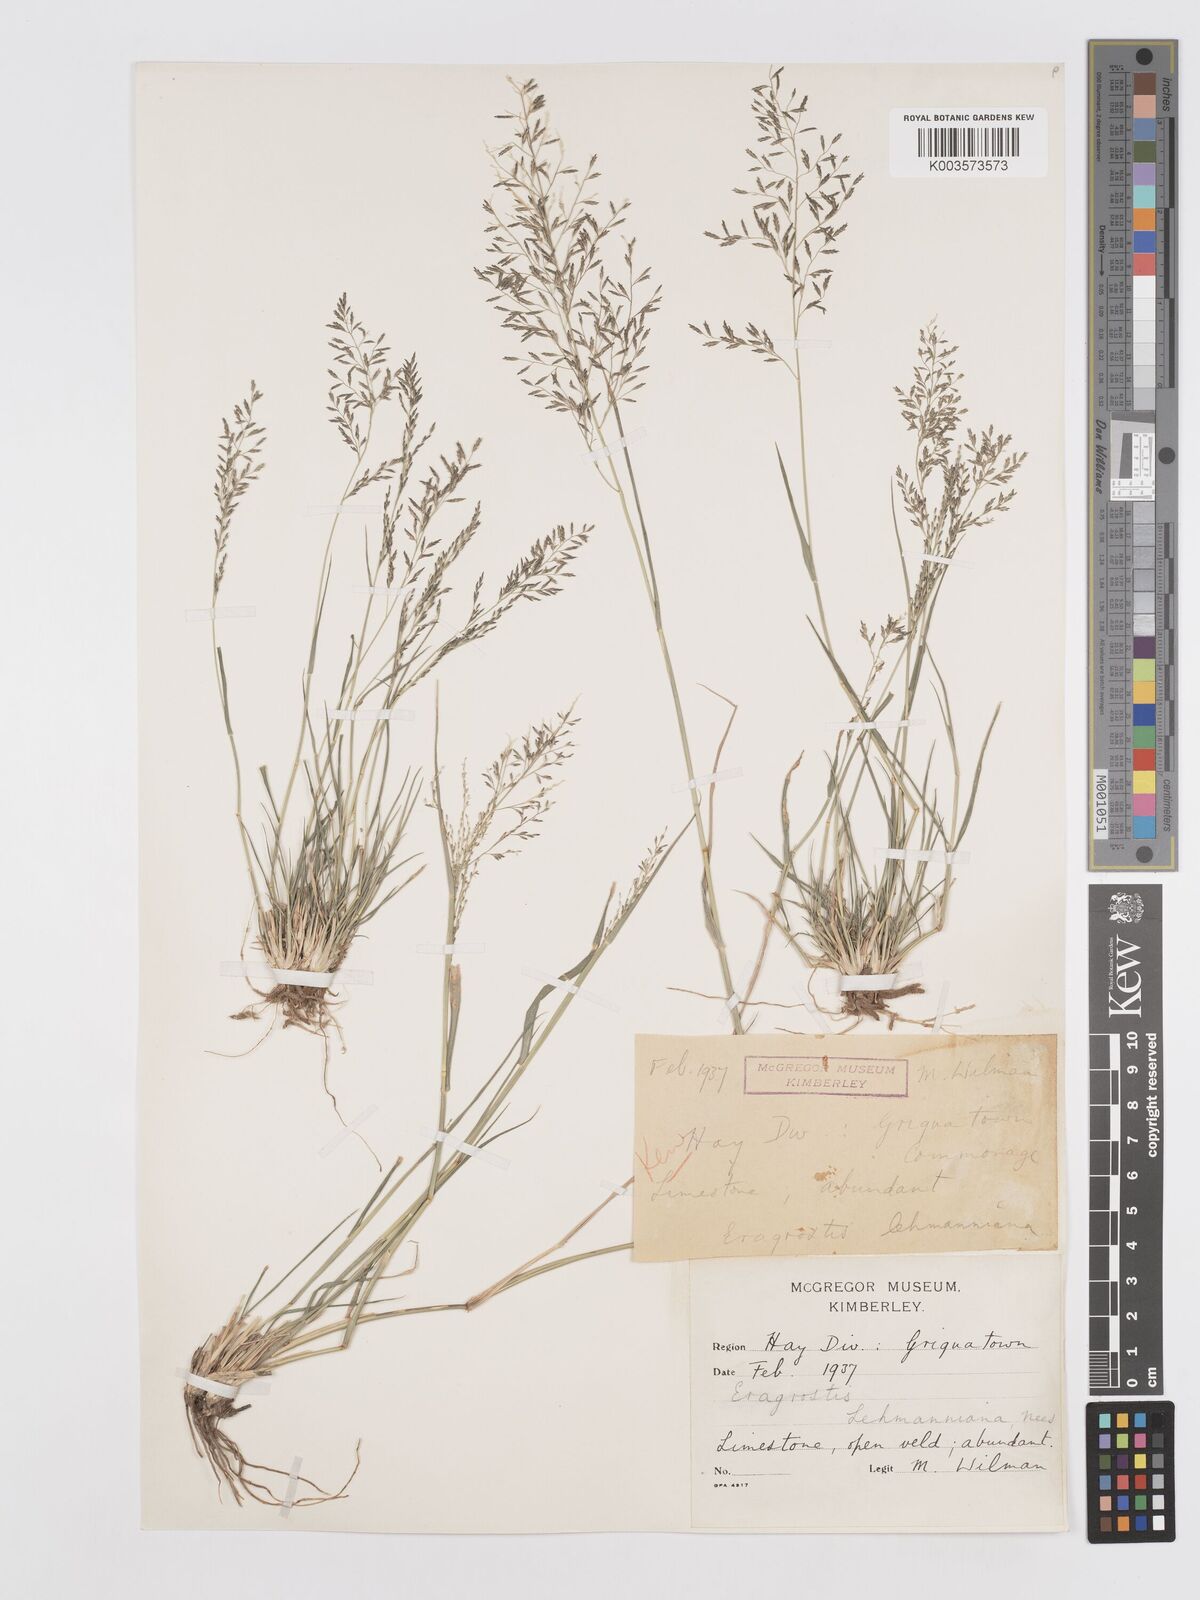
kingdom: Plantae
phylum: Tracheophyta
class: Liliopsida
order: Poales
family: Poaceae
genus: Eragrostis
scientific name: Eragrostis lehmanniana
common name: Lehmann lovegrass
